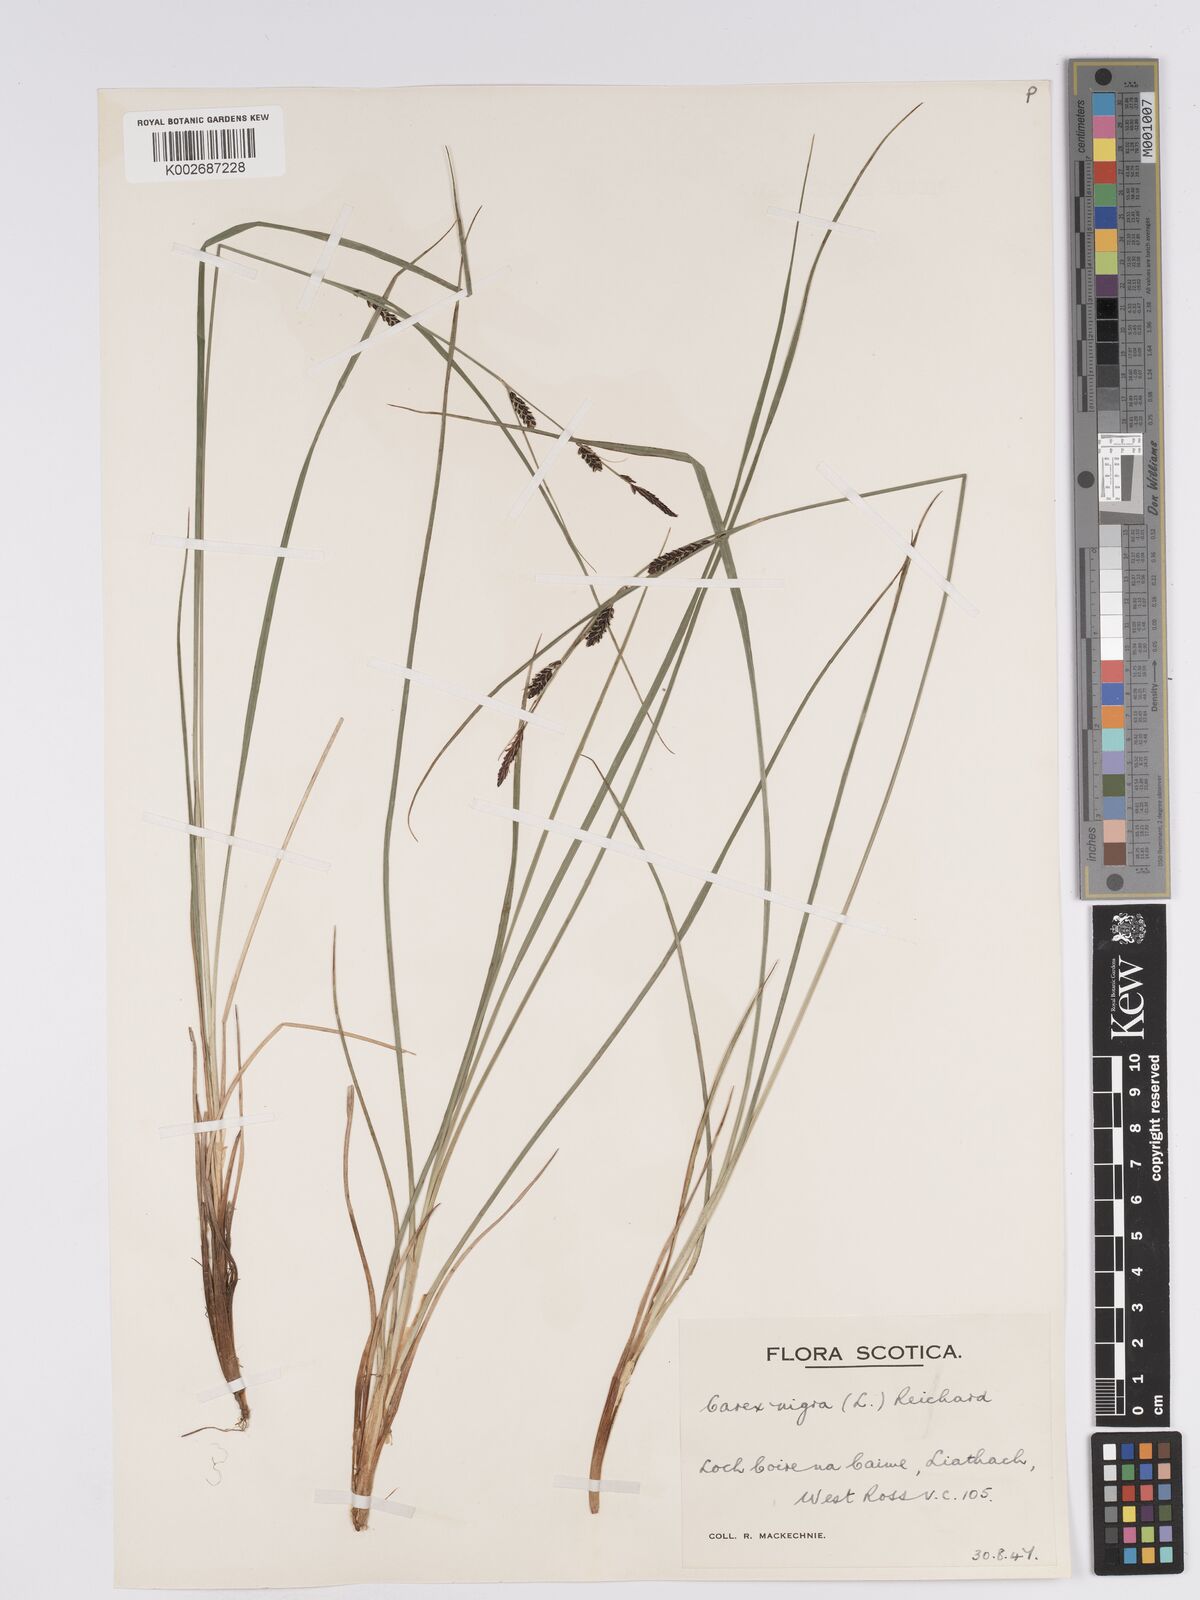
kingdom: Plantae
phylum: Tracheophyta
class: Liliopsida
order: Poales
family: Cyperaceae
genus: Carex
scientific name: Carex nigra
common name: Common sedge
